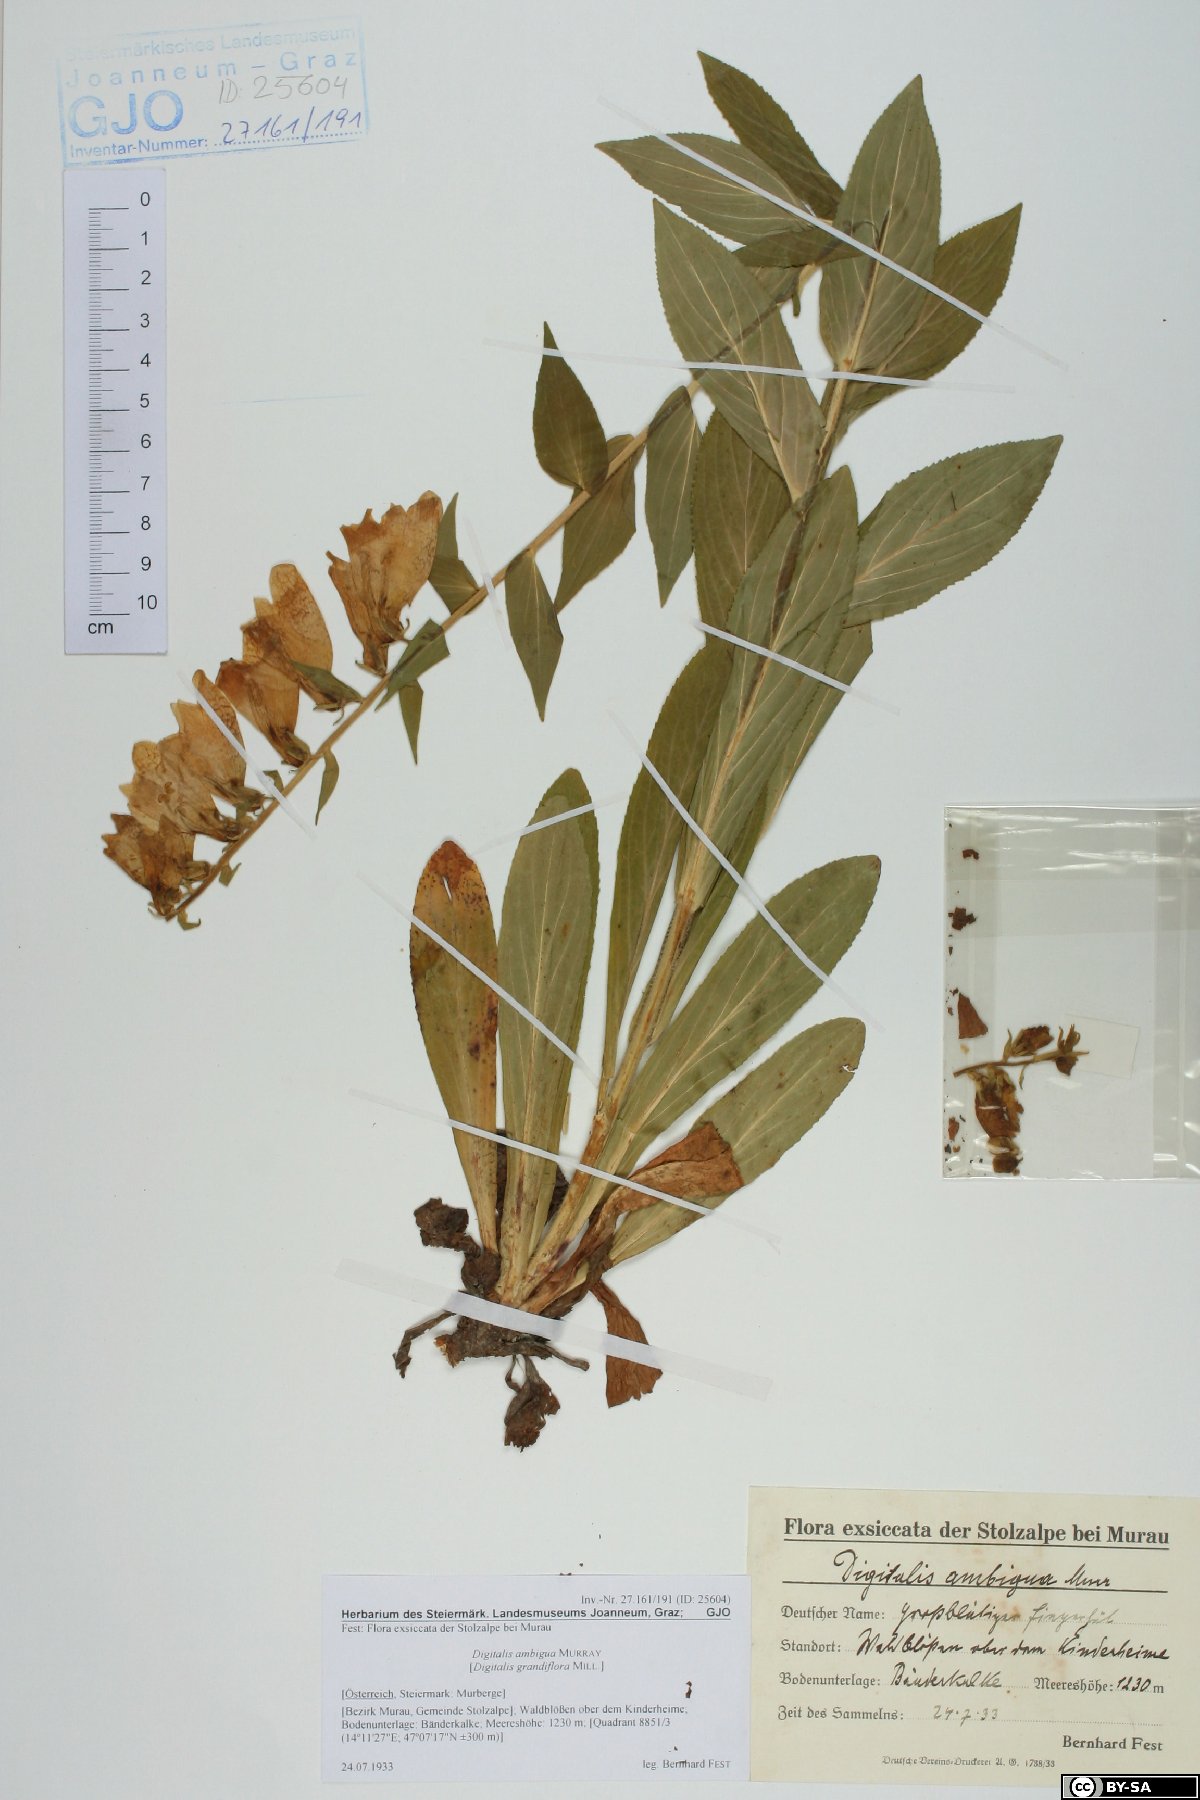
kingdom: Plantae
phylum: Tracheophyta
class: Magnoliopsida
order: Lamiales
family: Plantaginaceae
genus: Digitalis
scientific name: Digitalis grandiflora
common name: Yellow foxglove
